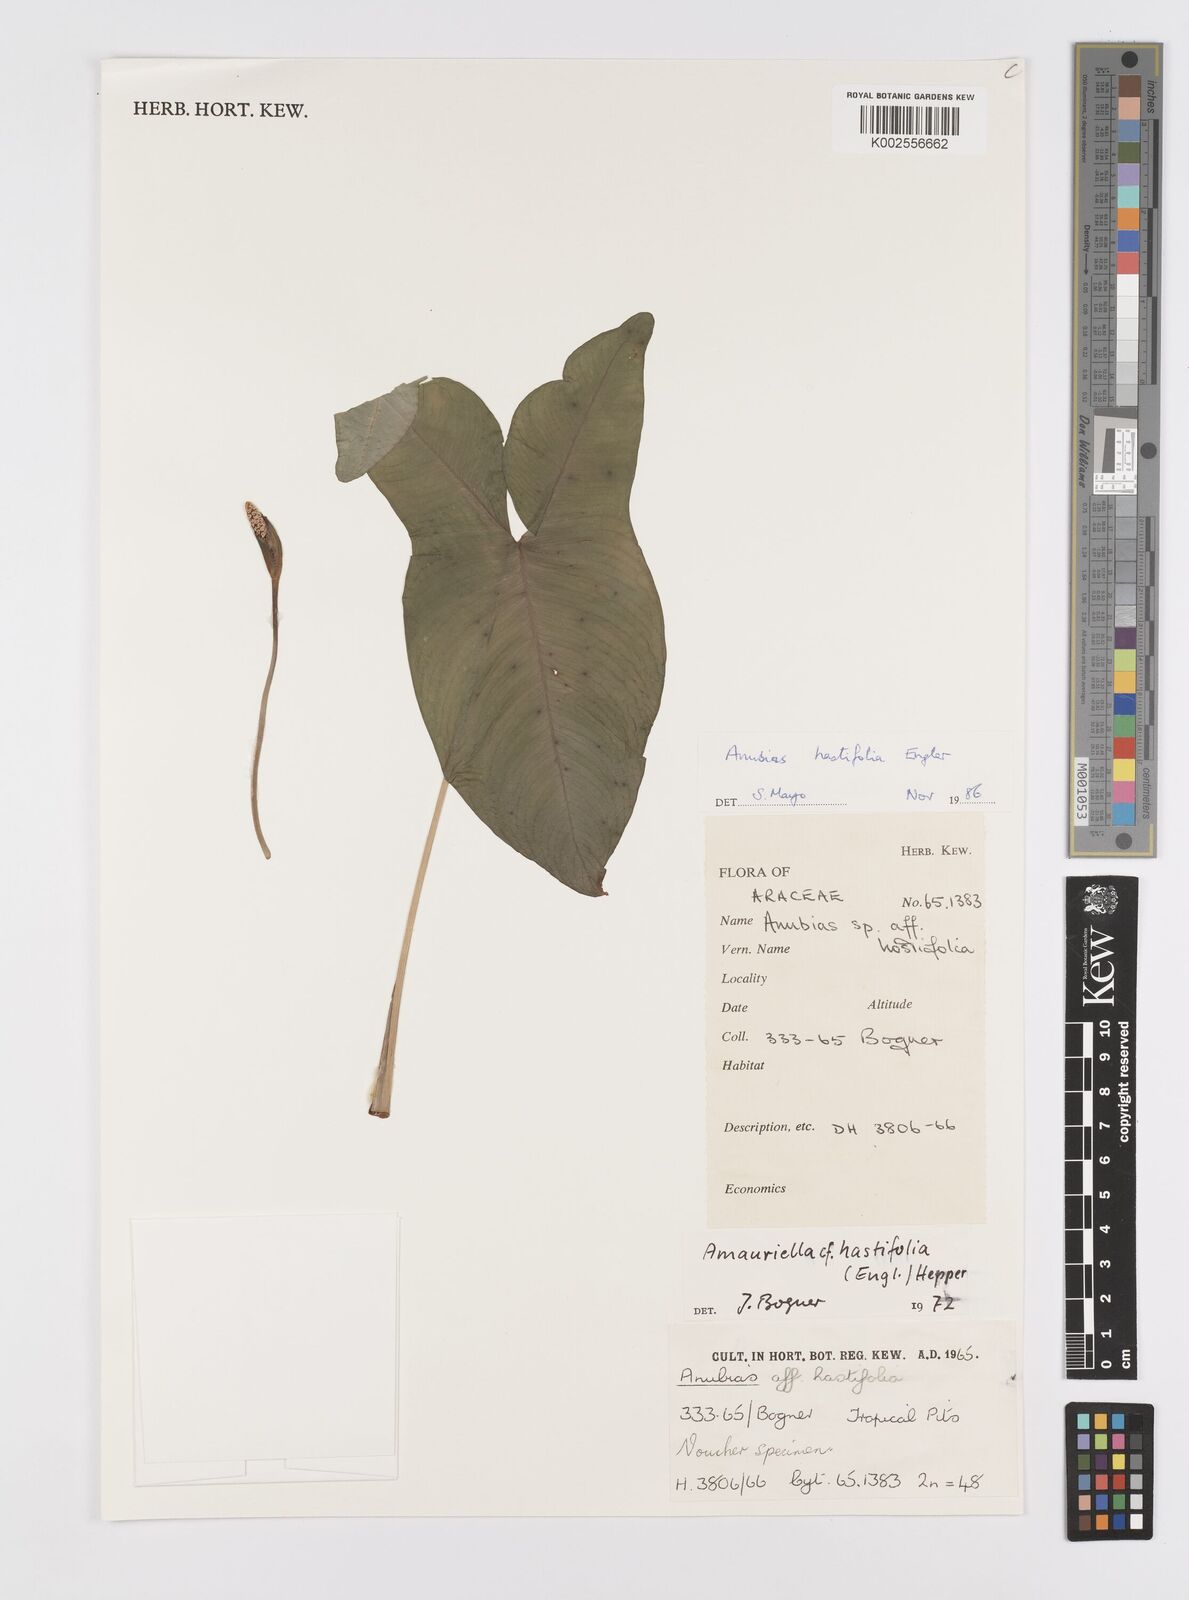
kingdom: Plantae
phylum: Tracheophyta
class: Liliopsida
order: Alismatales
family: Araceae
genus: Anubias
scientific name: Anubias hastifolia
